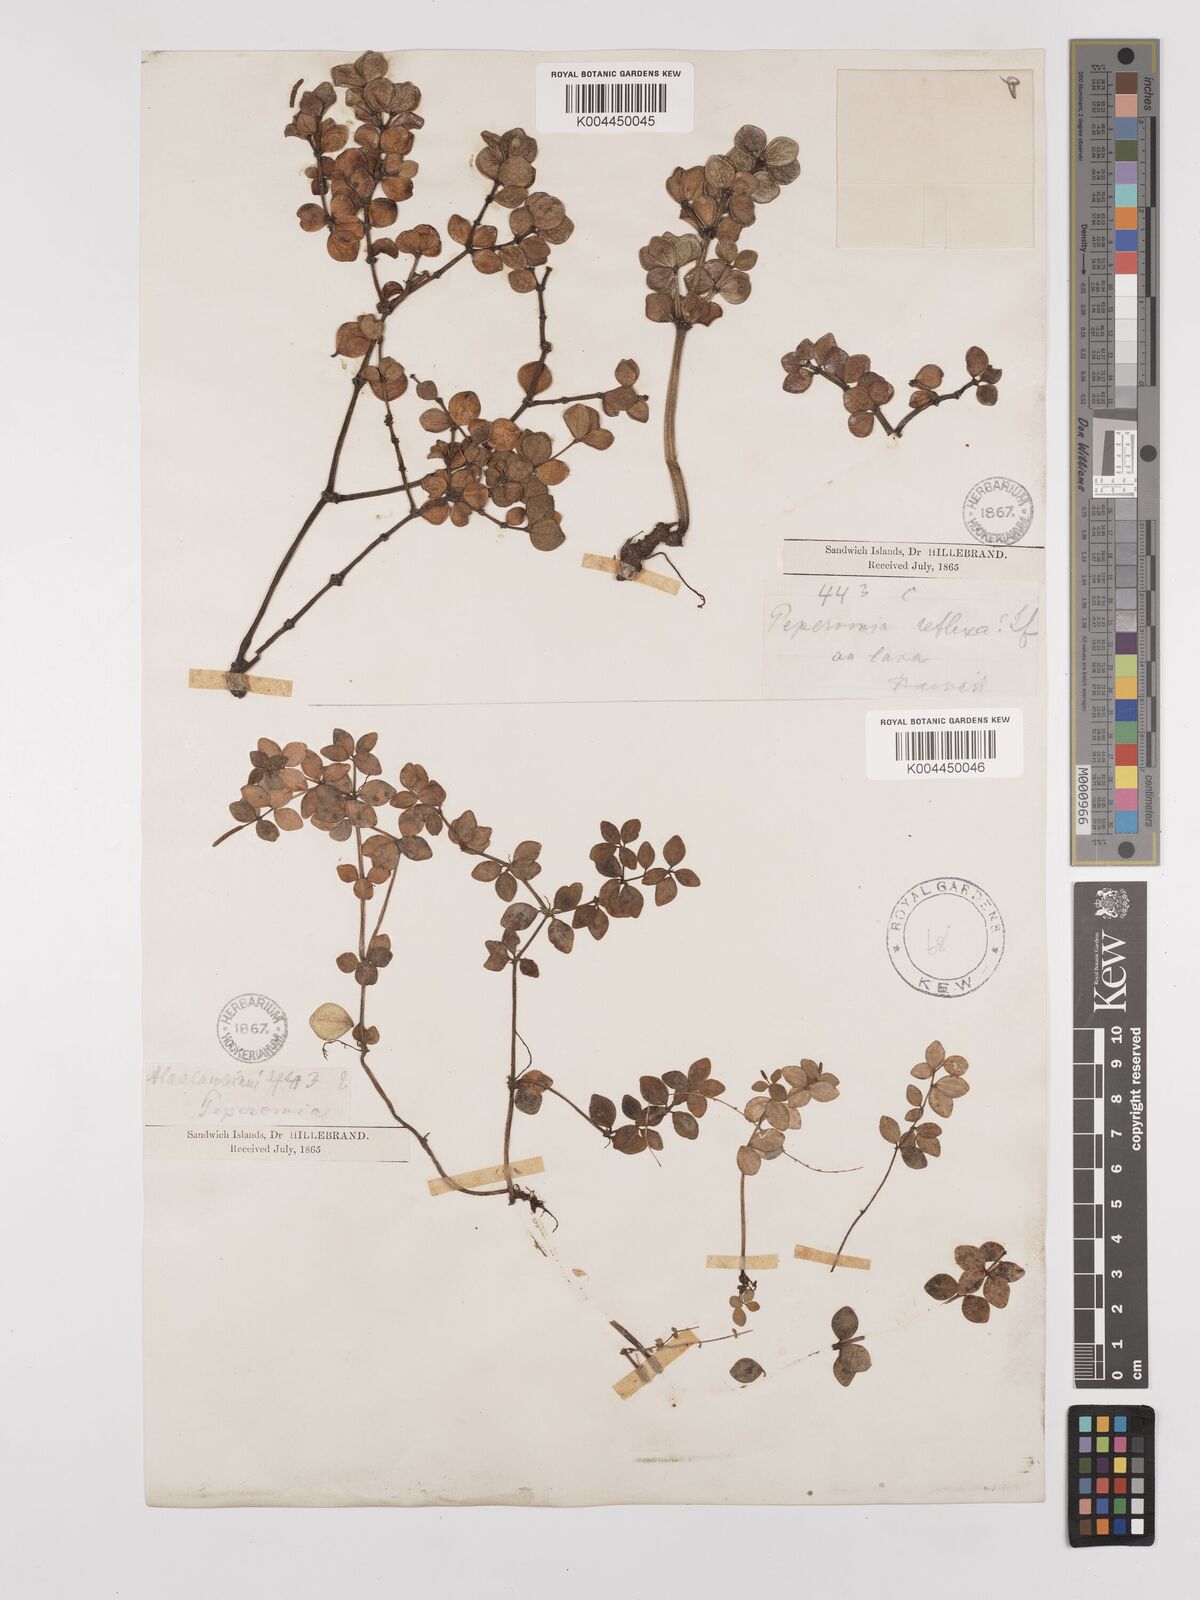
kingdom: Plantae
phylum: Tracheophyta
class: Magnoliopsida
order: Piperales
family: Piperaceae
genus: Peperomia
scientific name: Peperomia tetraphylla
